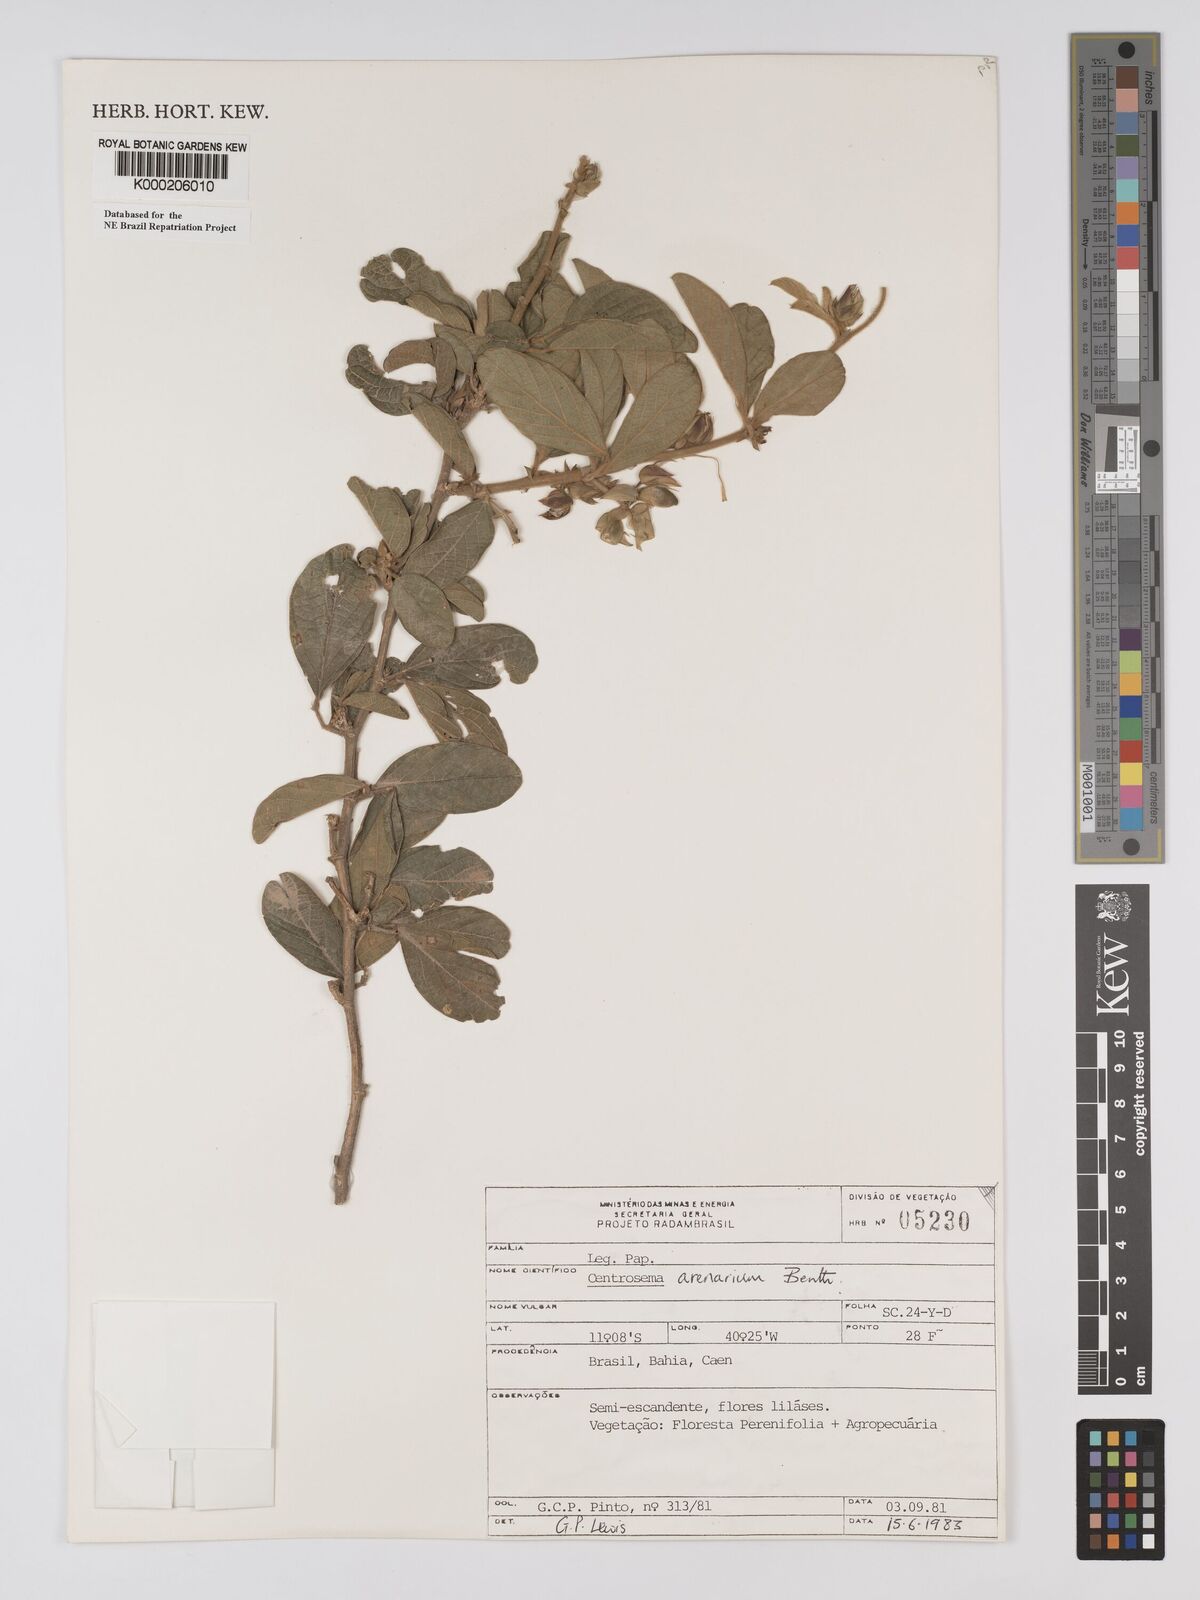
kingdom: Plantae
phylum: Tracheophyta
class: Magnoliopsida
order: Fabales
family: Fabaceae
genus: Centrosema
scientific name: Centrosema arenarium
